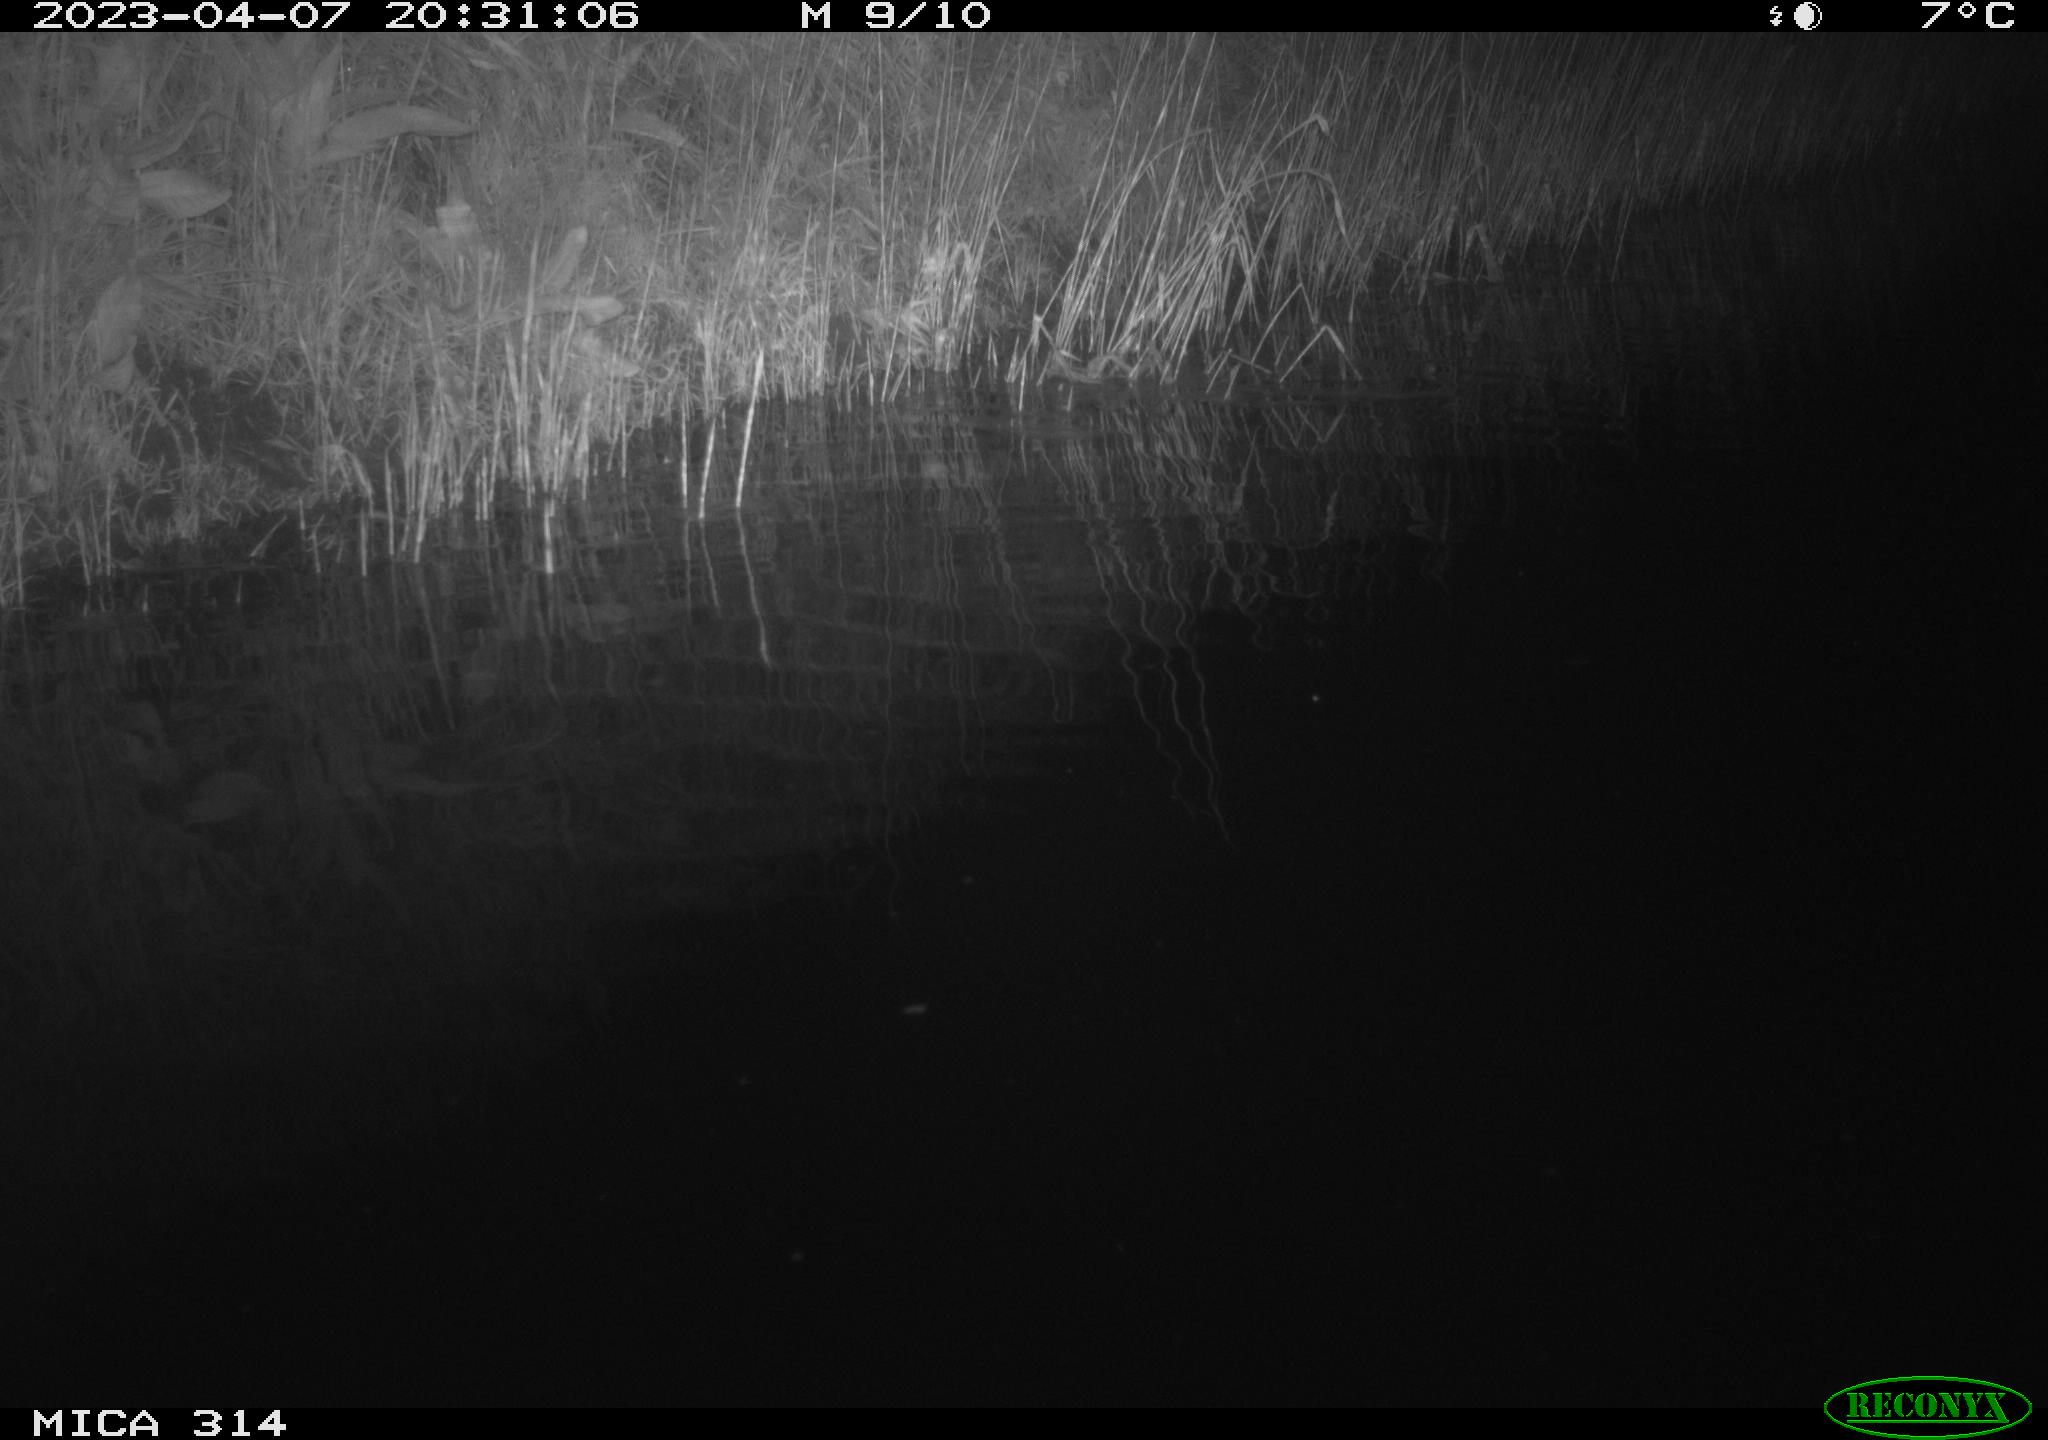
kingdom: Animalia
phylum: Chordata
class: Aves
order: Anseriformes
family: Anatidae
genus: Anas
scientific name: Anas
